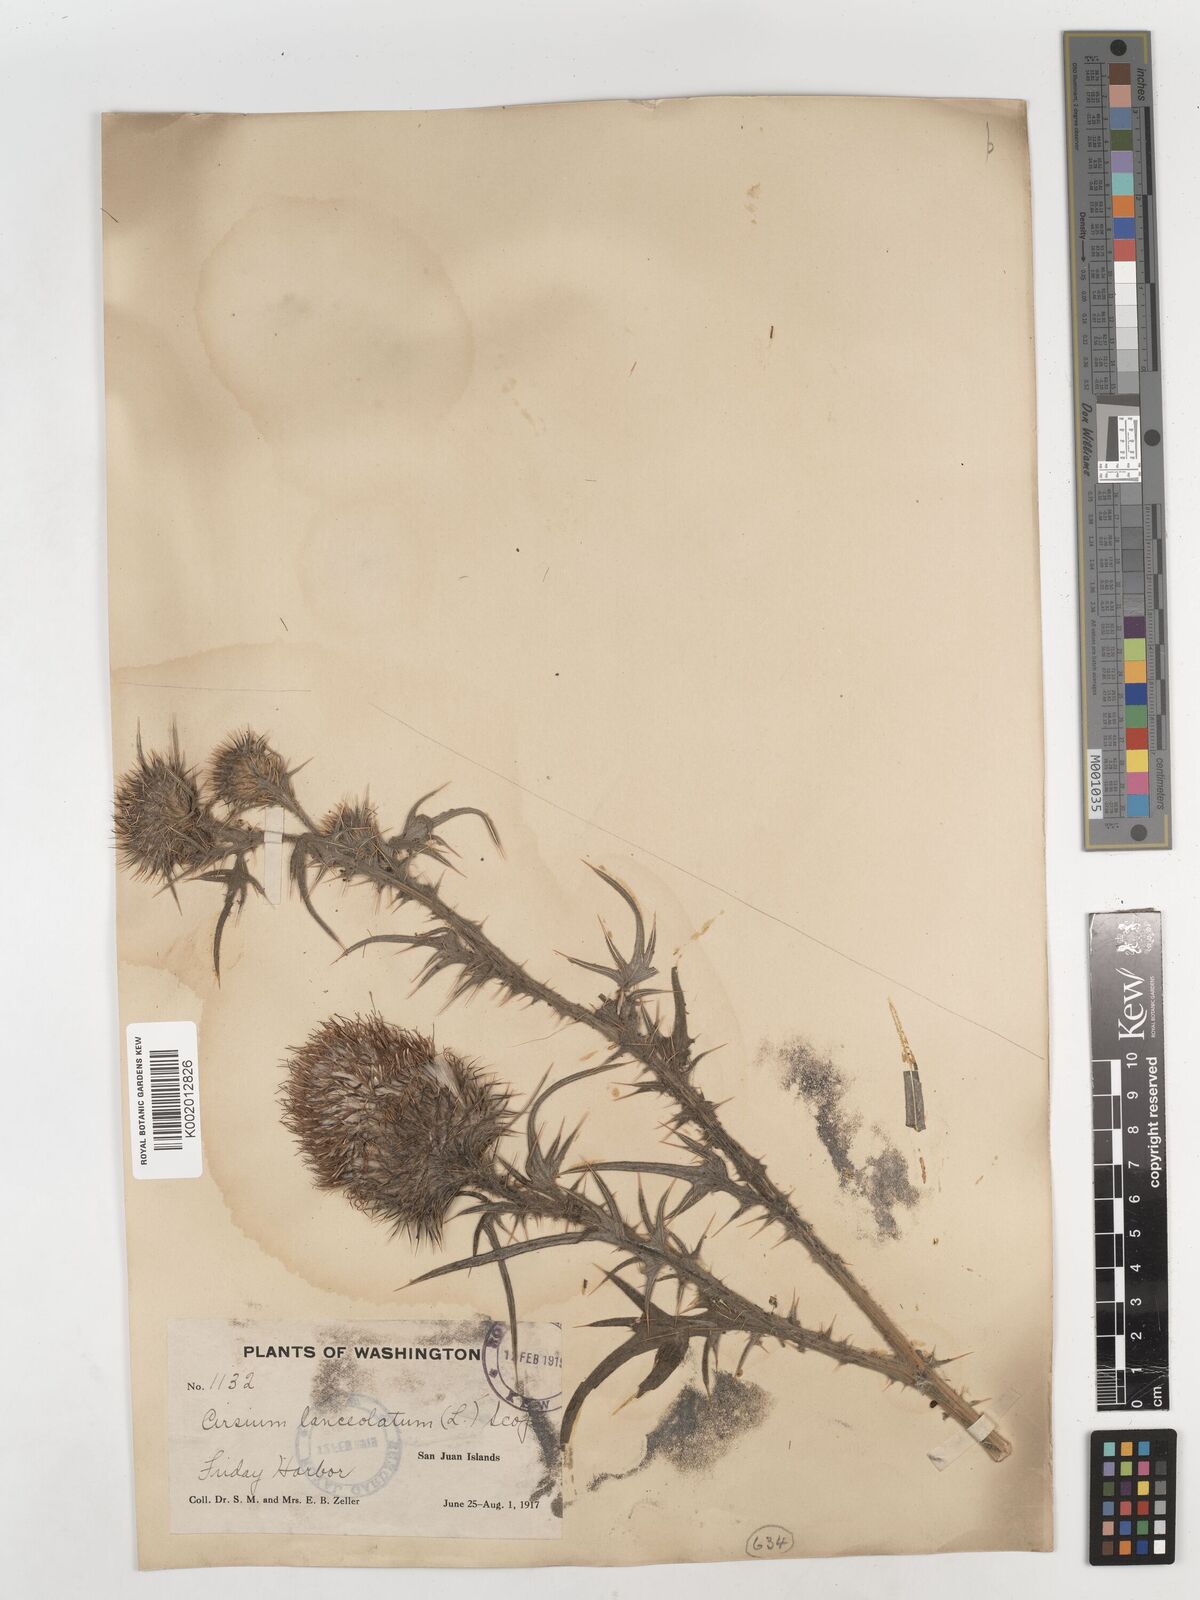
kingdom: Plantae
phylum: Tracheophyta
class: Magnoliopsida
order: Asterales
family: Asteraceae
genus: Cirsium
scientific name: Cirsium
